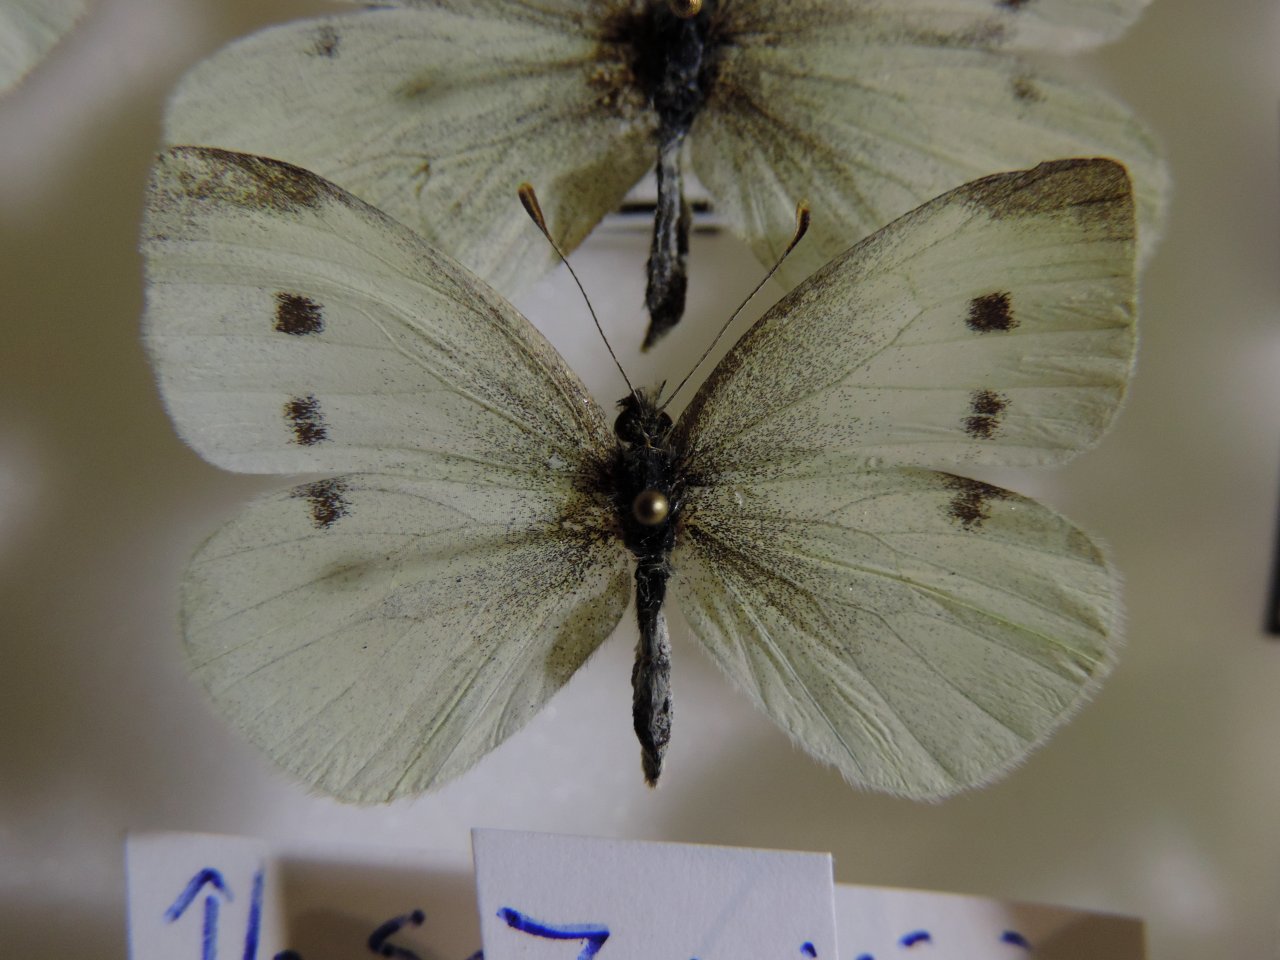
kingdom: Animalia
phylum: Arthropoda
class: Insecta
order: Lepidoptera
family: Pieridae
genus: Pieris
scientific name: Pieris rapae
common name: Cabbage White
